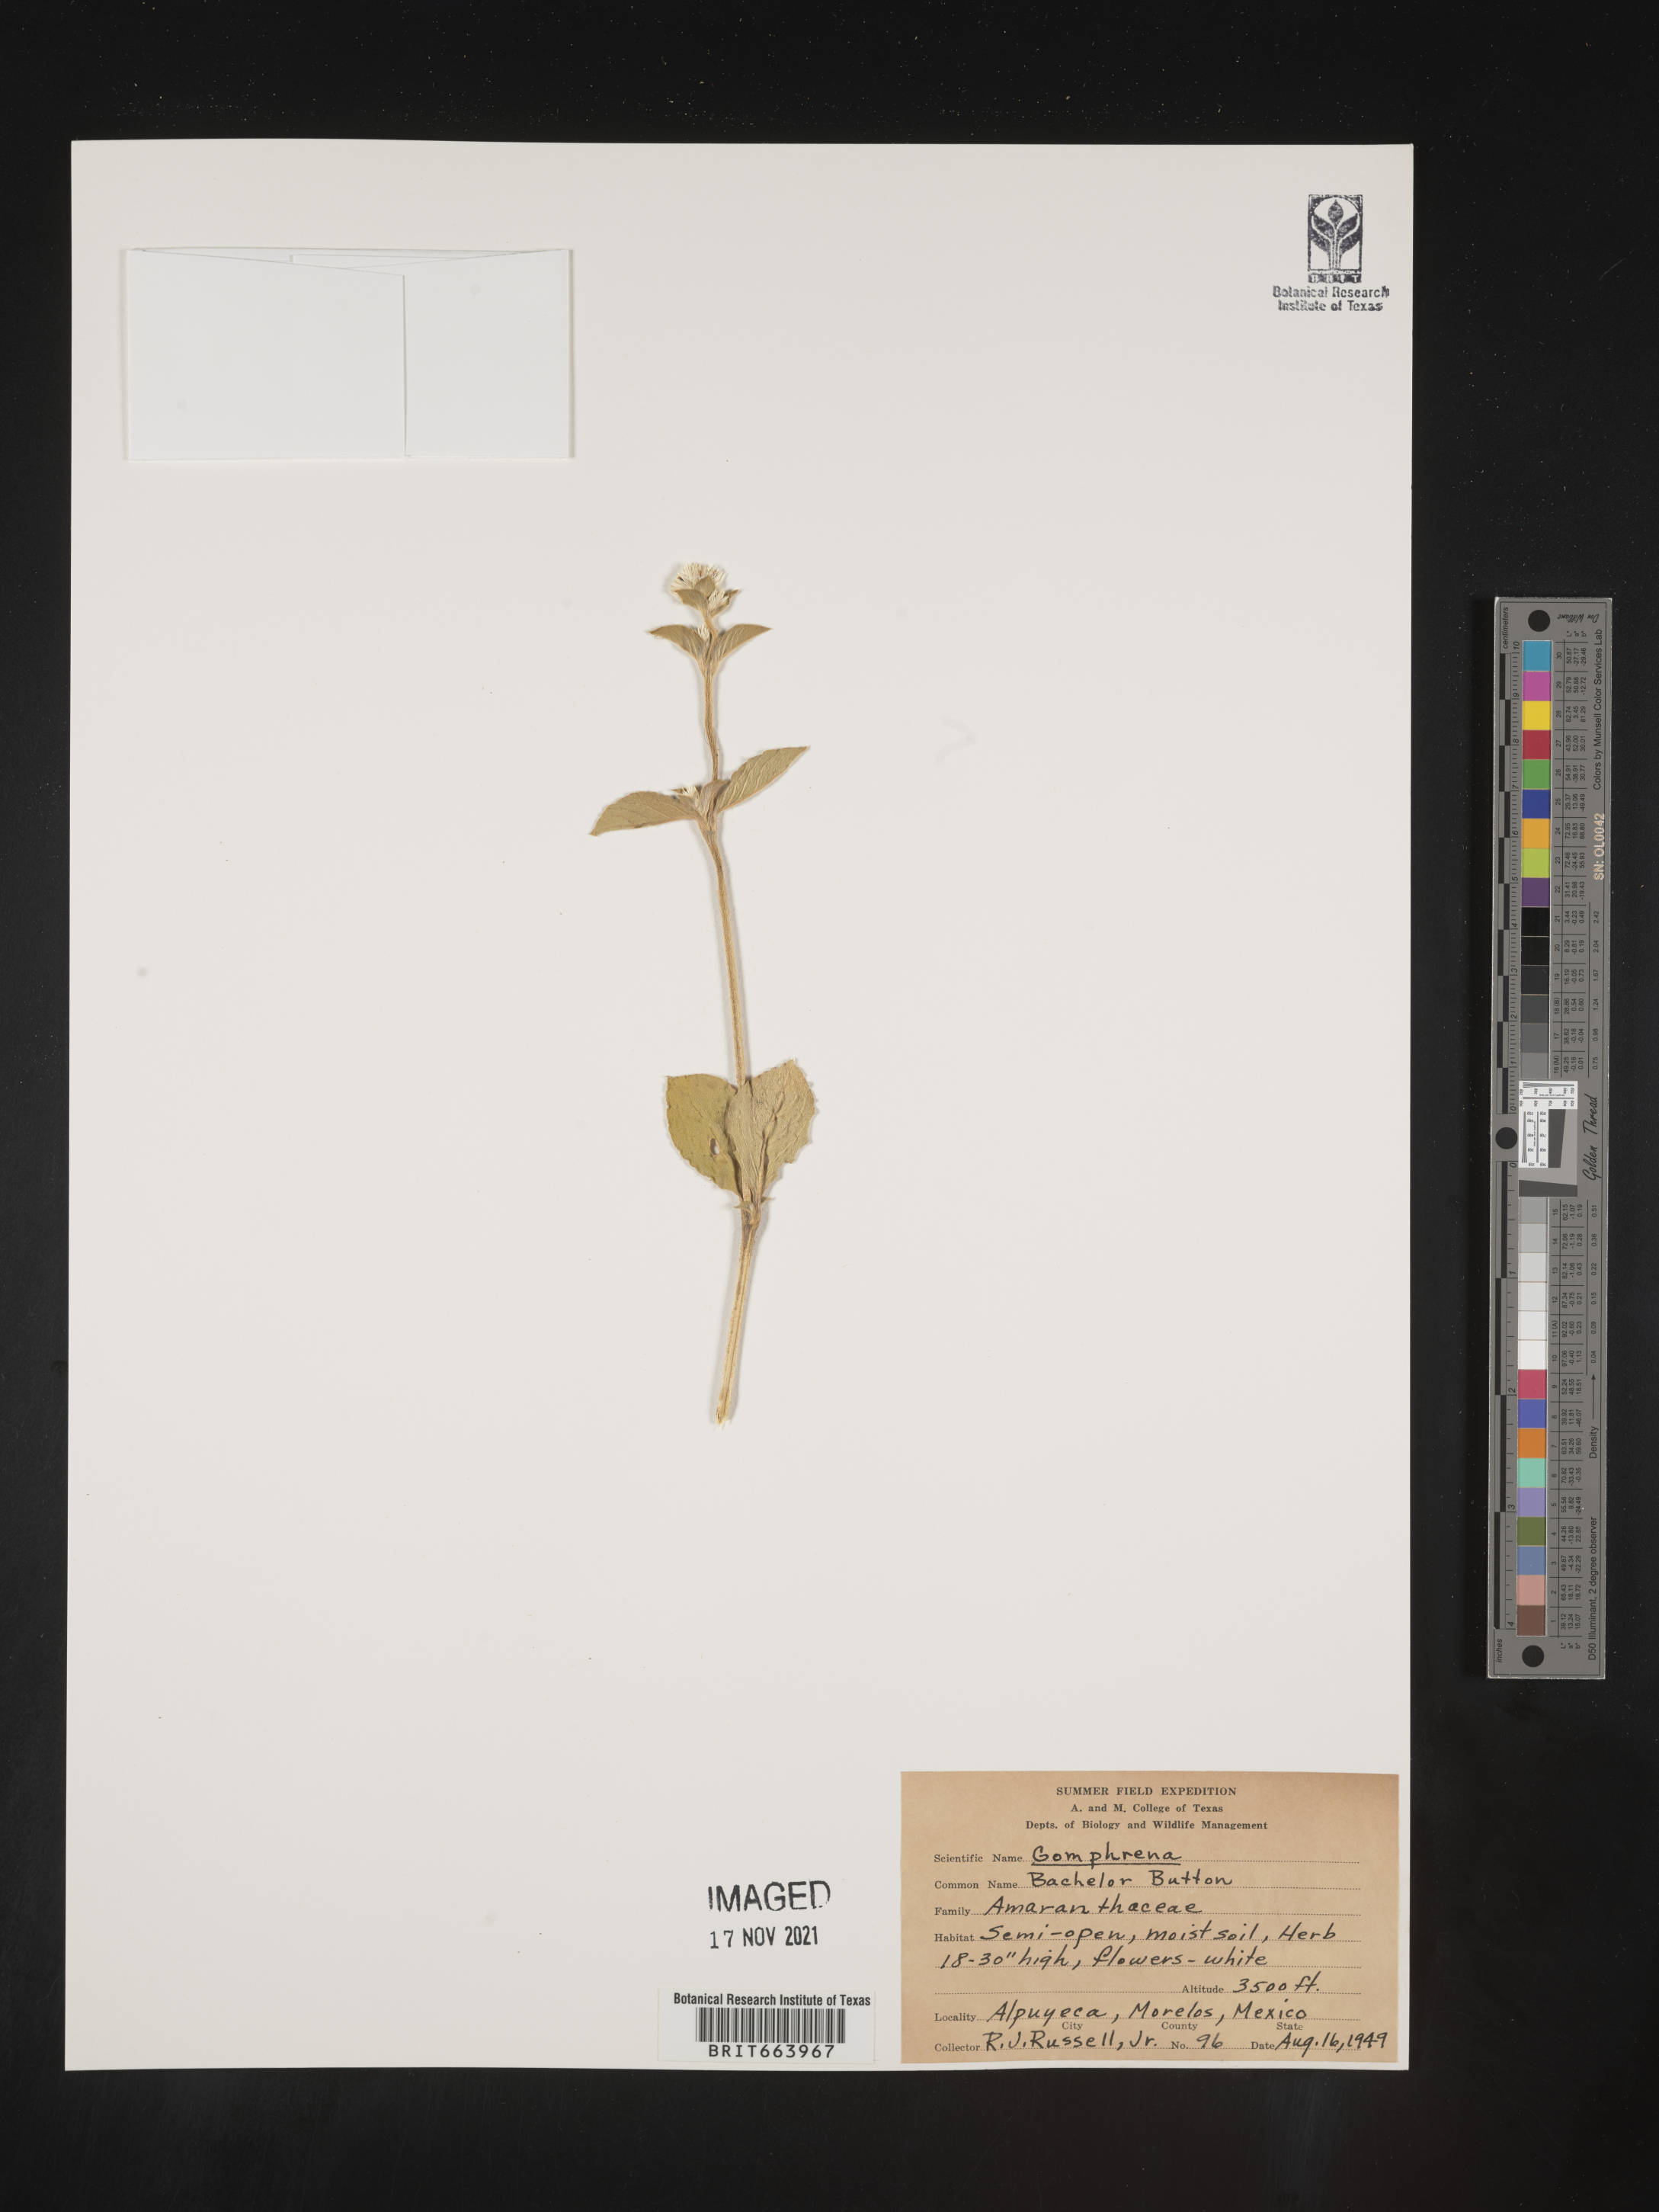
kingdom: Plantae
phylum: Tracheophyta
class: Magnoliopsida
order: Caryophyllales
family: Amaranthaceae
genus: Gomphrena
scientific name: Gomphrena
